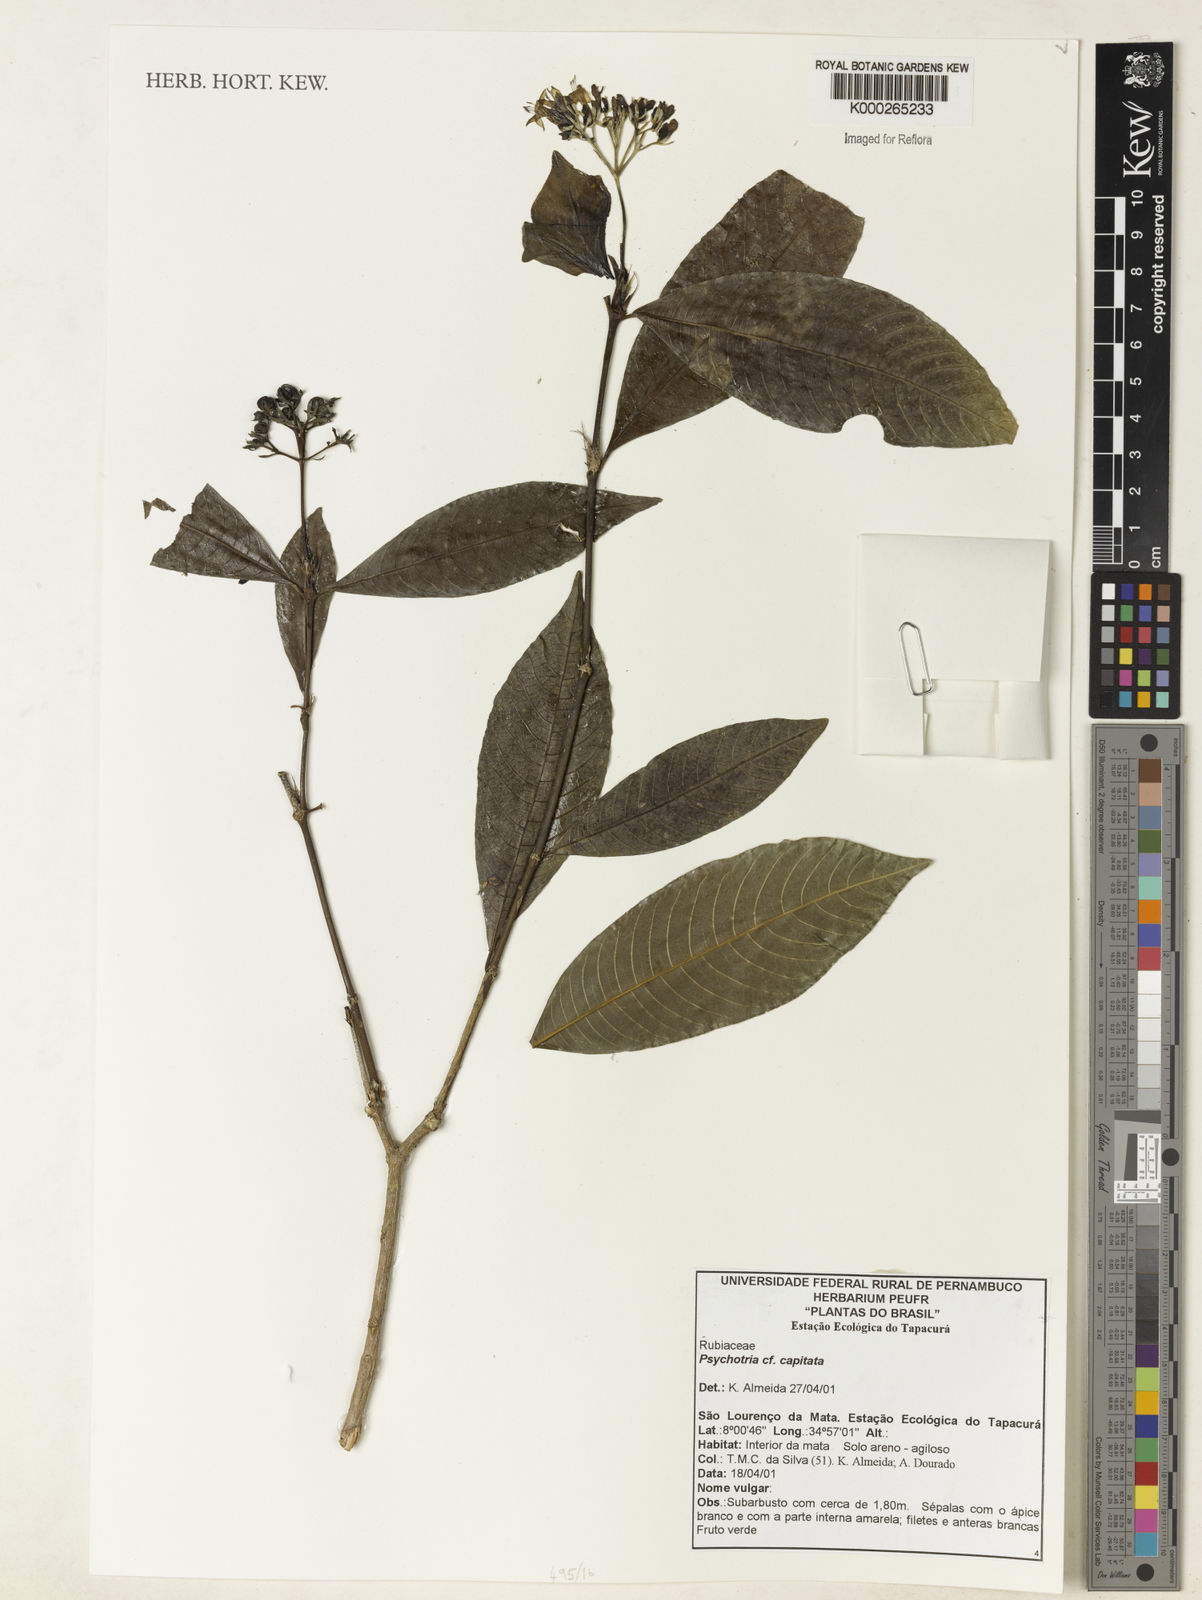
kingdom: Plantae
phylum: Tracheophyta
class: Magnoliopsida
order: Gentianales
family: Rubiaceae
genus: Psychotria
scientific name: Psychotria
